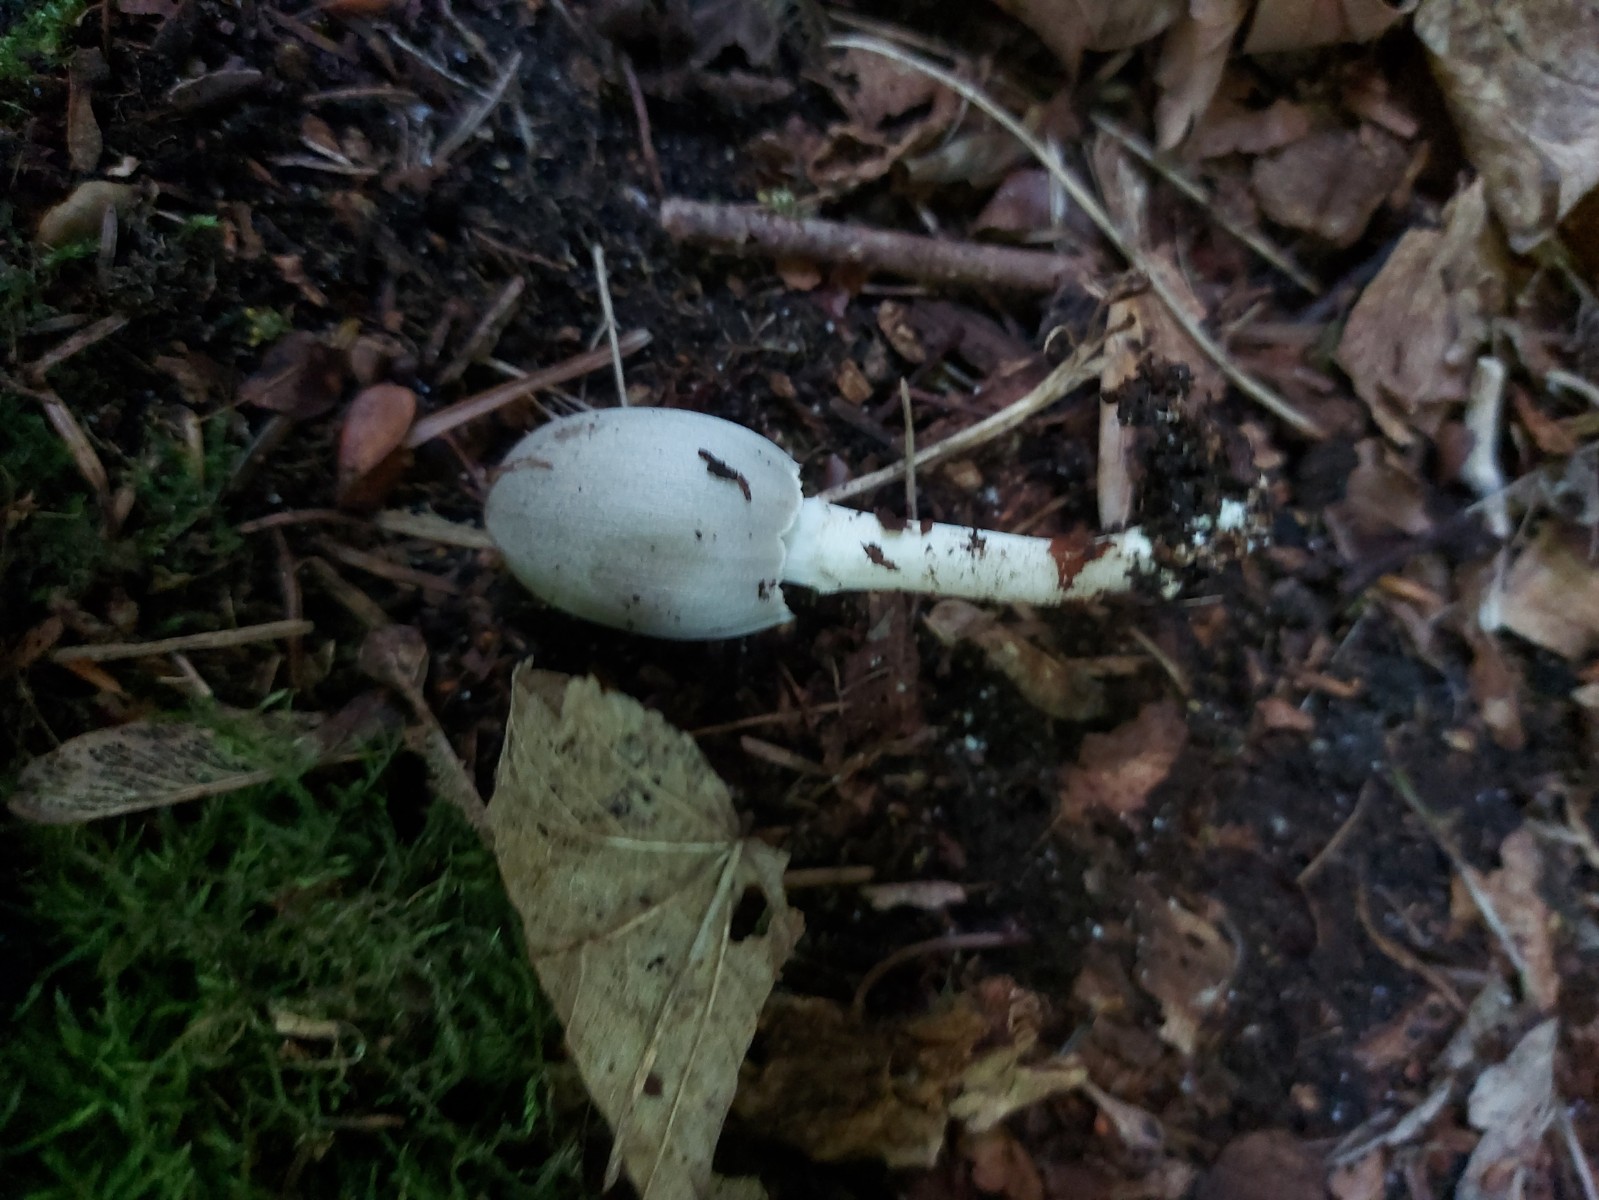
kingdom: Fungi
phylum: Basidiomycota
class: Agaricomycetes
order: Agaricales
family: Psathyrellaceae
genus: Coprinopsis
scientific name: Coprinopsis atramentaria
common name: almindelig blækhat
